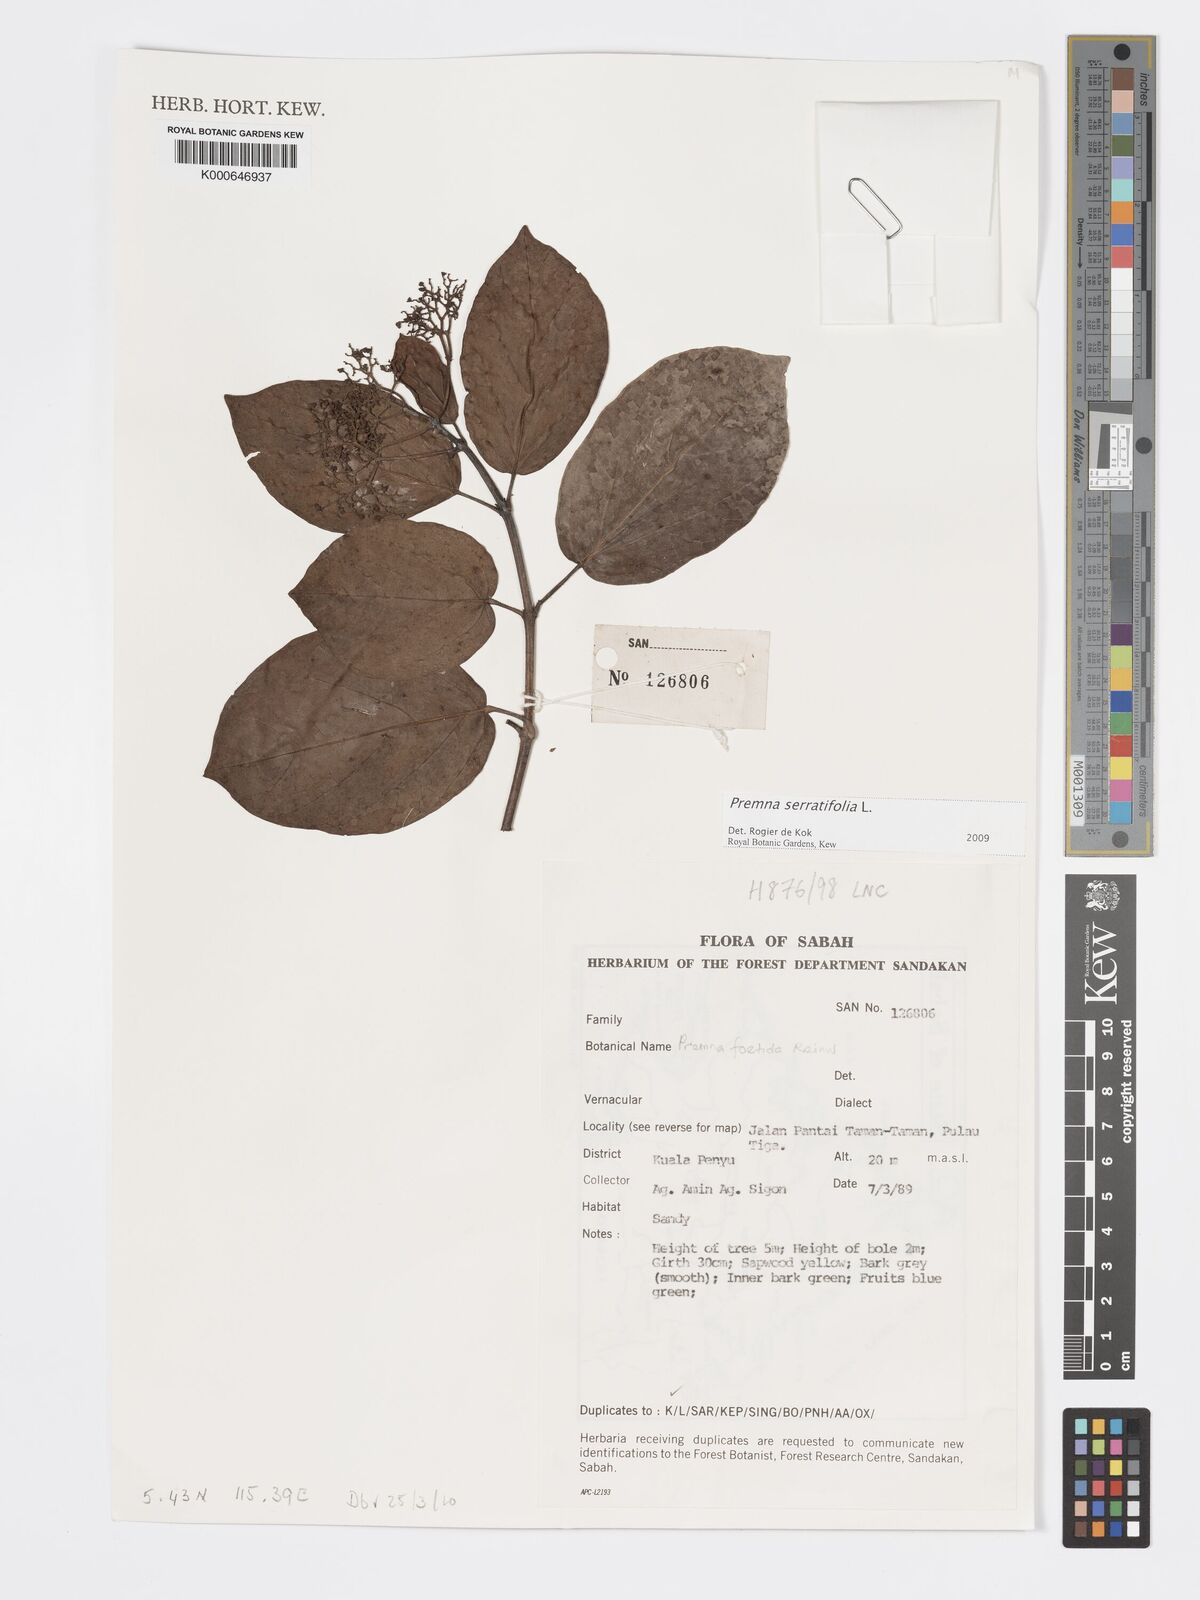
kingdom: Plantae
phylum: Tracheophyta
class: Magnoliopsida
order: Lamiales
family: Lamiaceae
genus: Premna
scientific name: Premna serratifolia
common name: Bastard guelder
